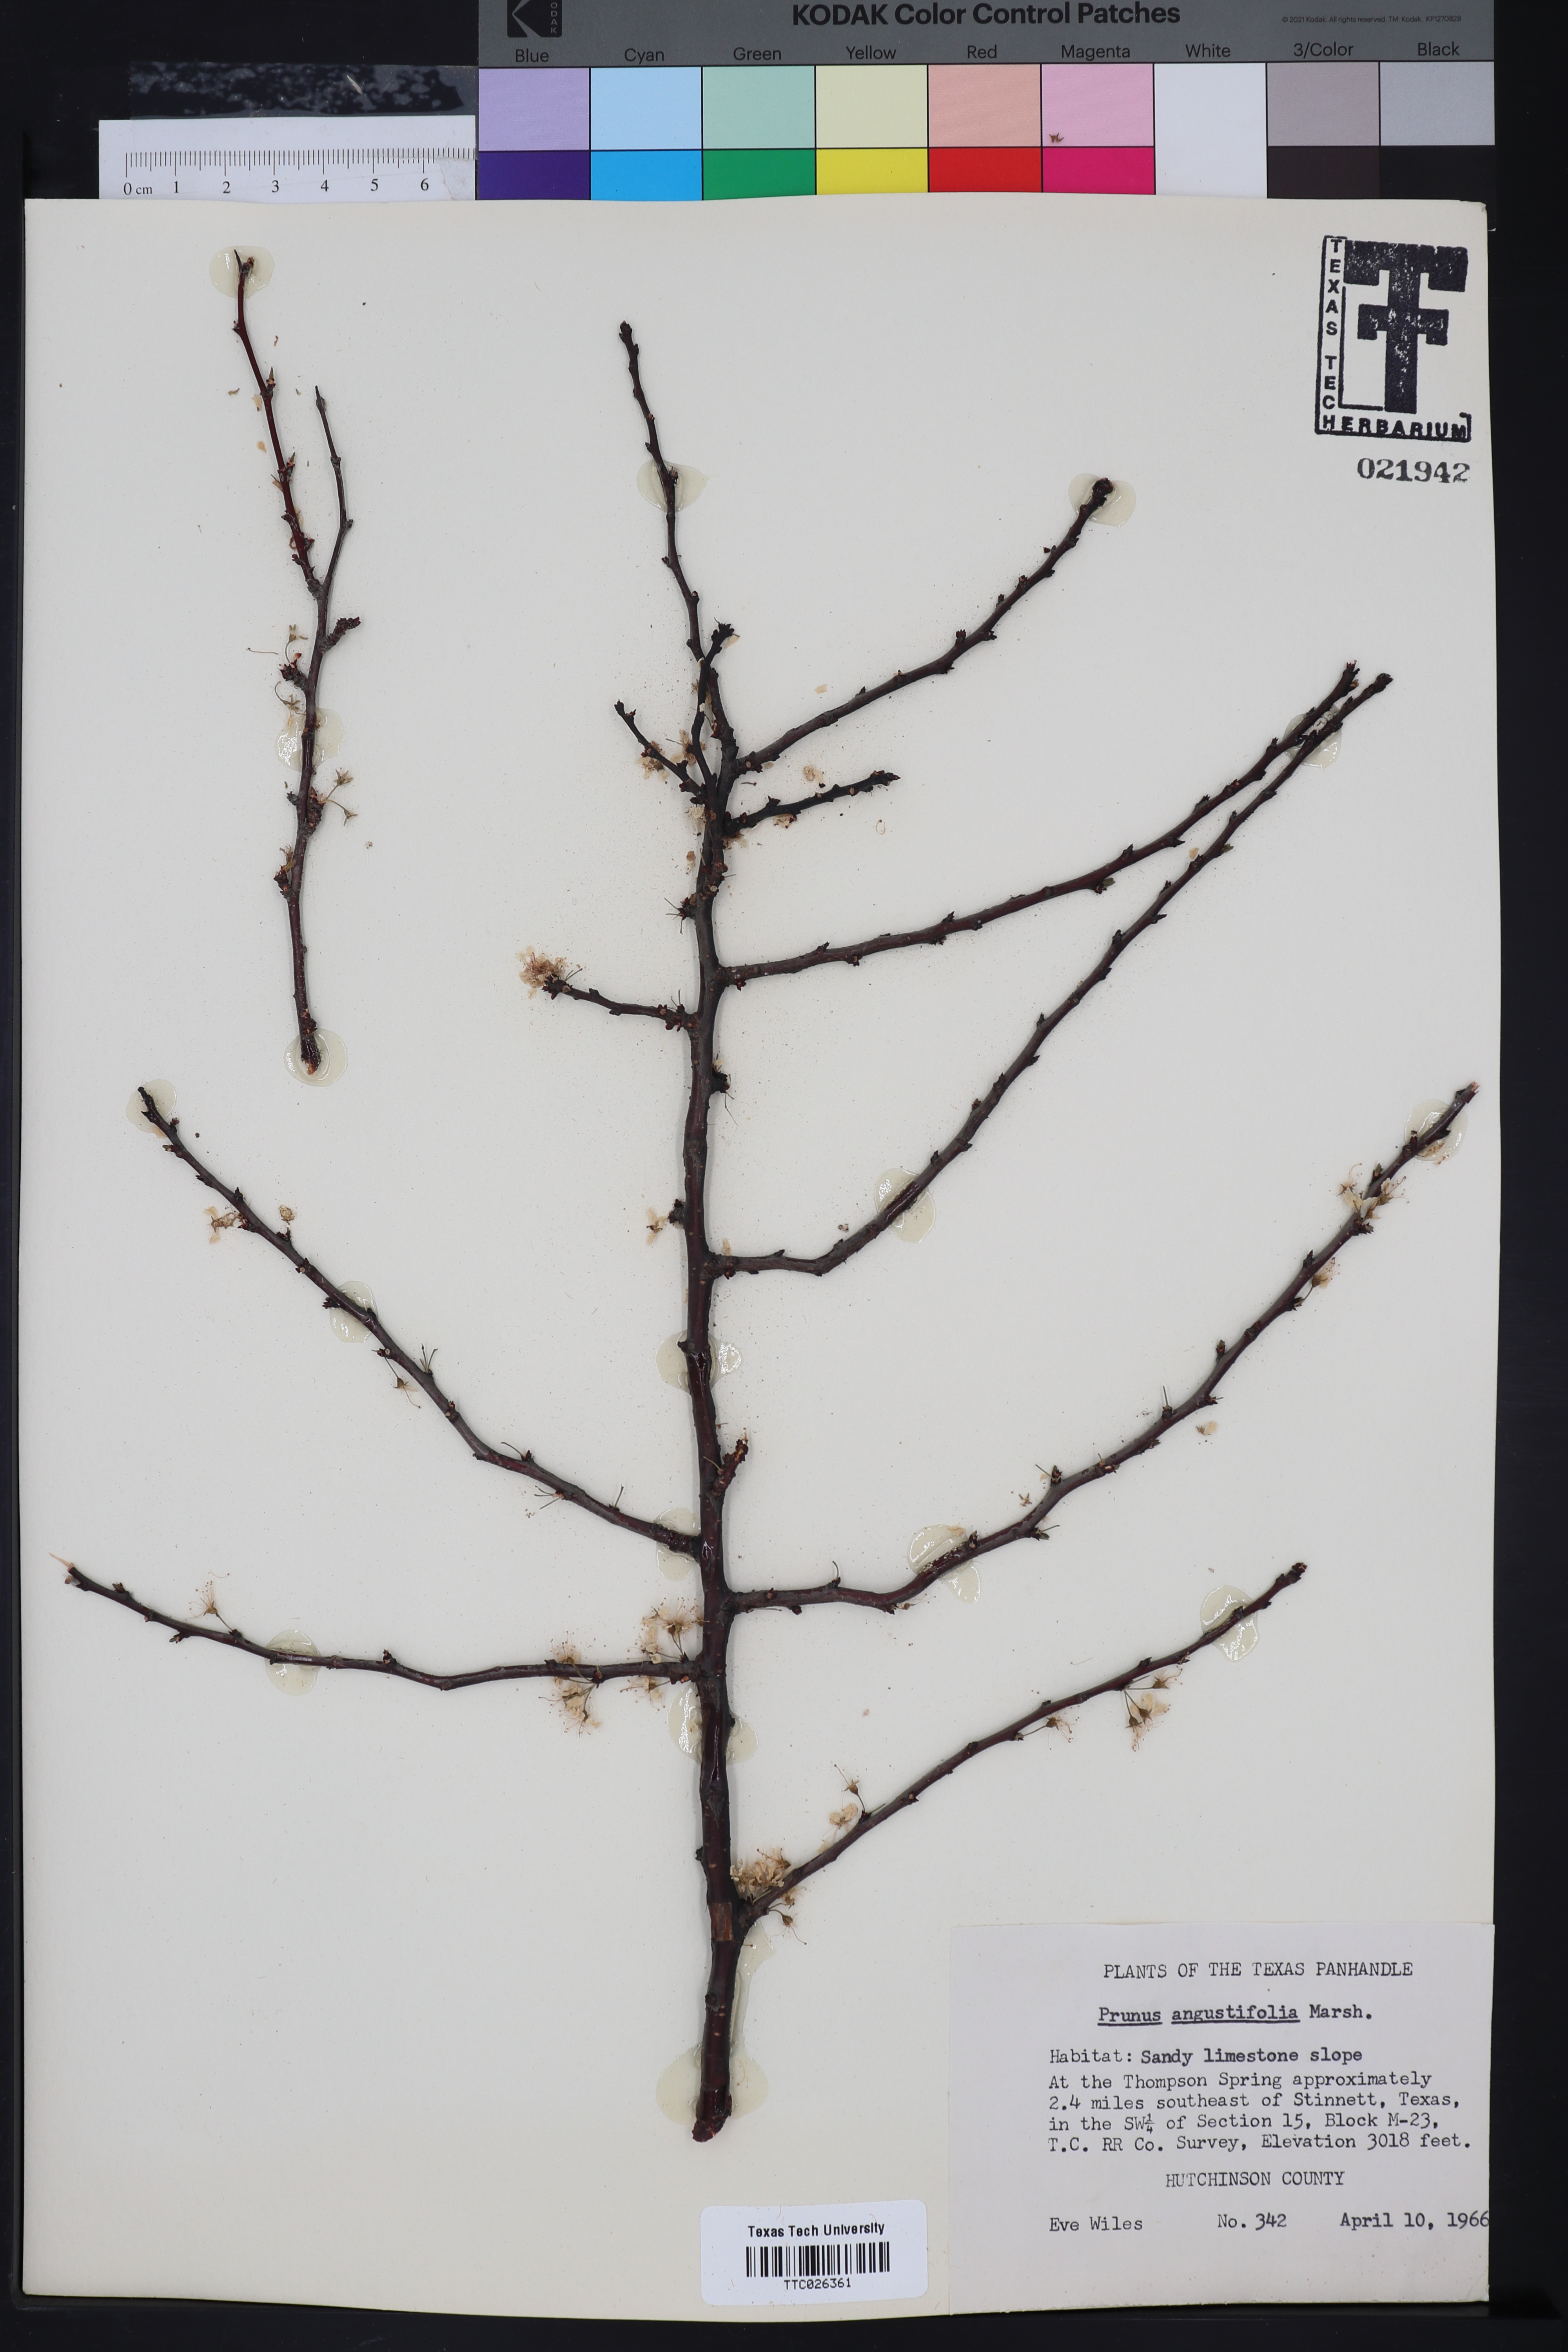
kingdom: Plantae
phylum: Tracheophyta
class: Magnoliopsida
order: Rosales
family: Rosaceae
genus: Prunus
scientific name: Prunus angustifolia
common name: Cherokee plum
